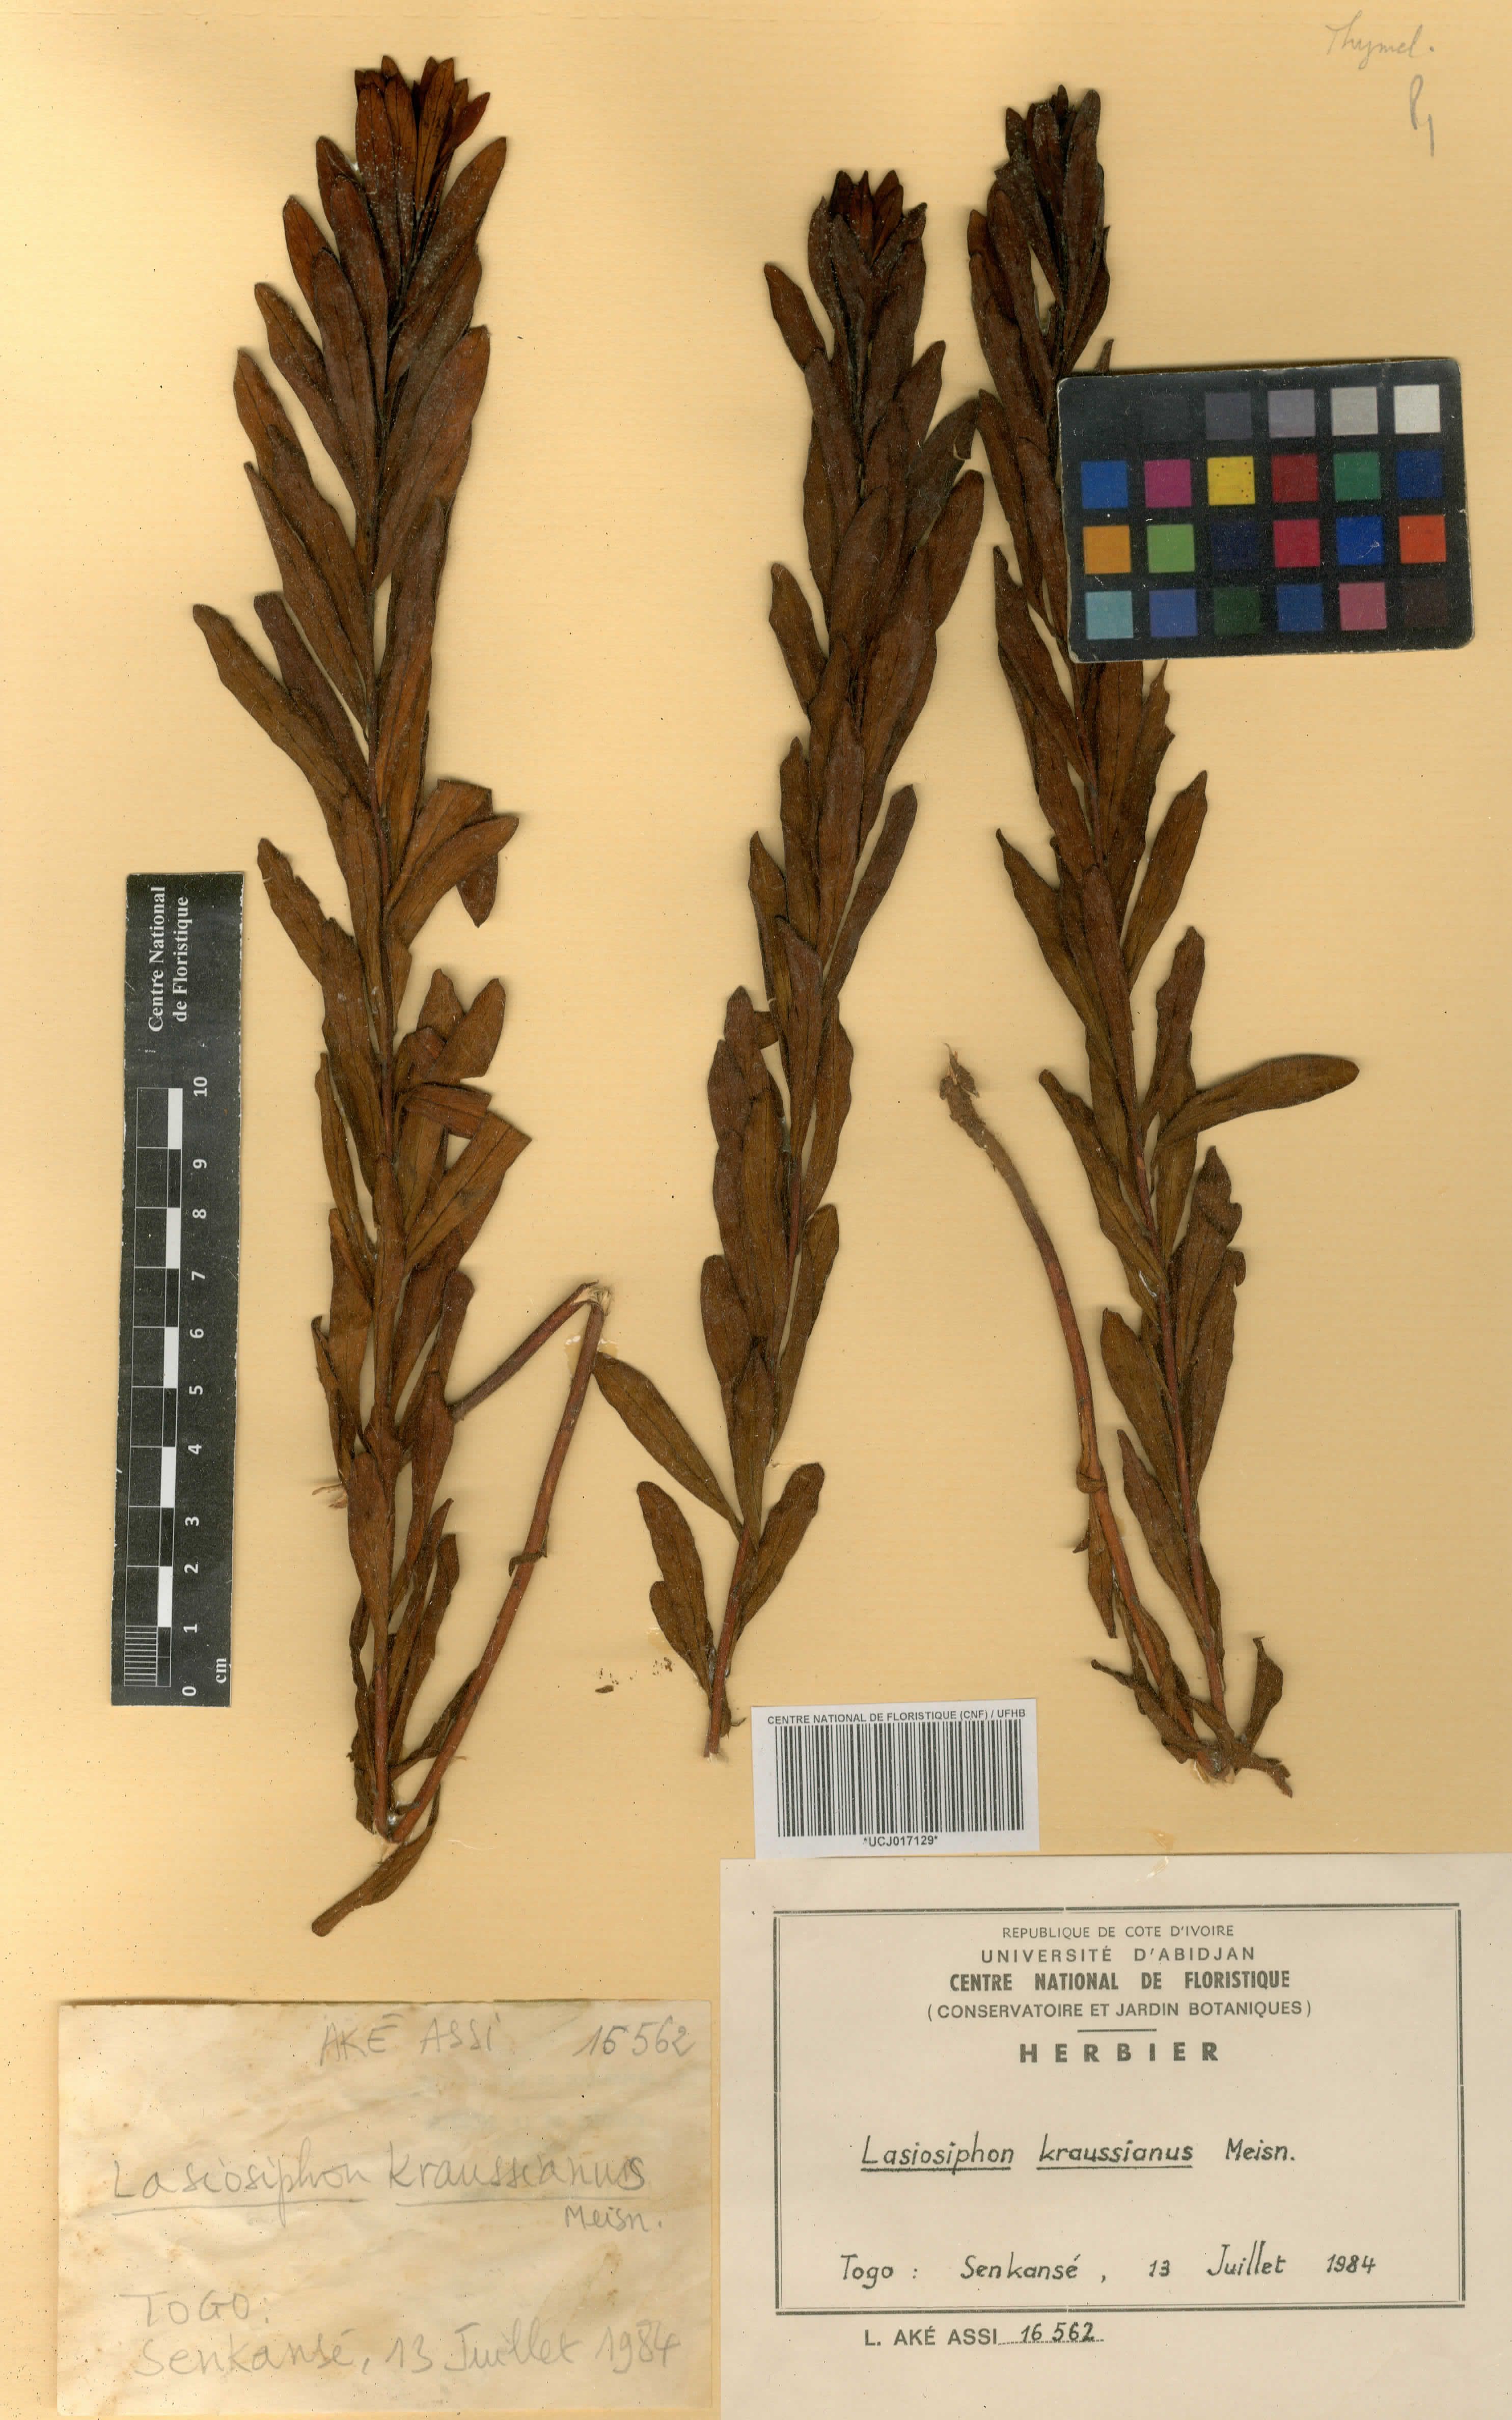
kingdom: Plantae
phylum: Tracheophyta
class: Magnoliopsida
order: Malvales
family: Thymelaeaceae
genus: Gnidia
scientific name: Gnidia kraussiana
